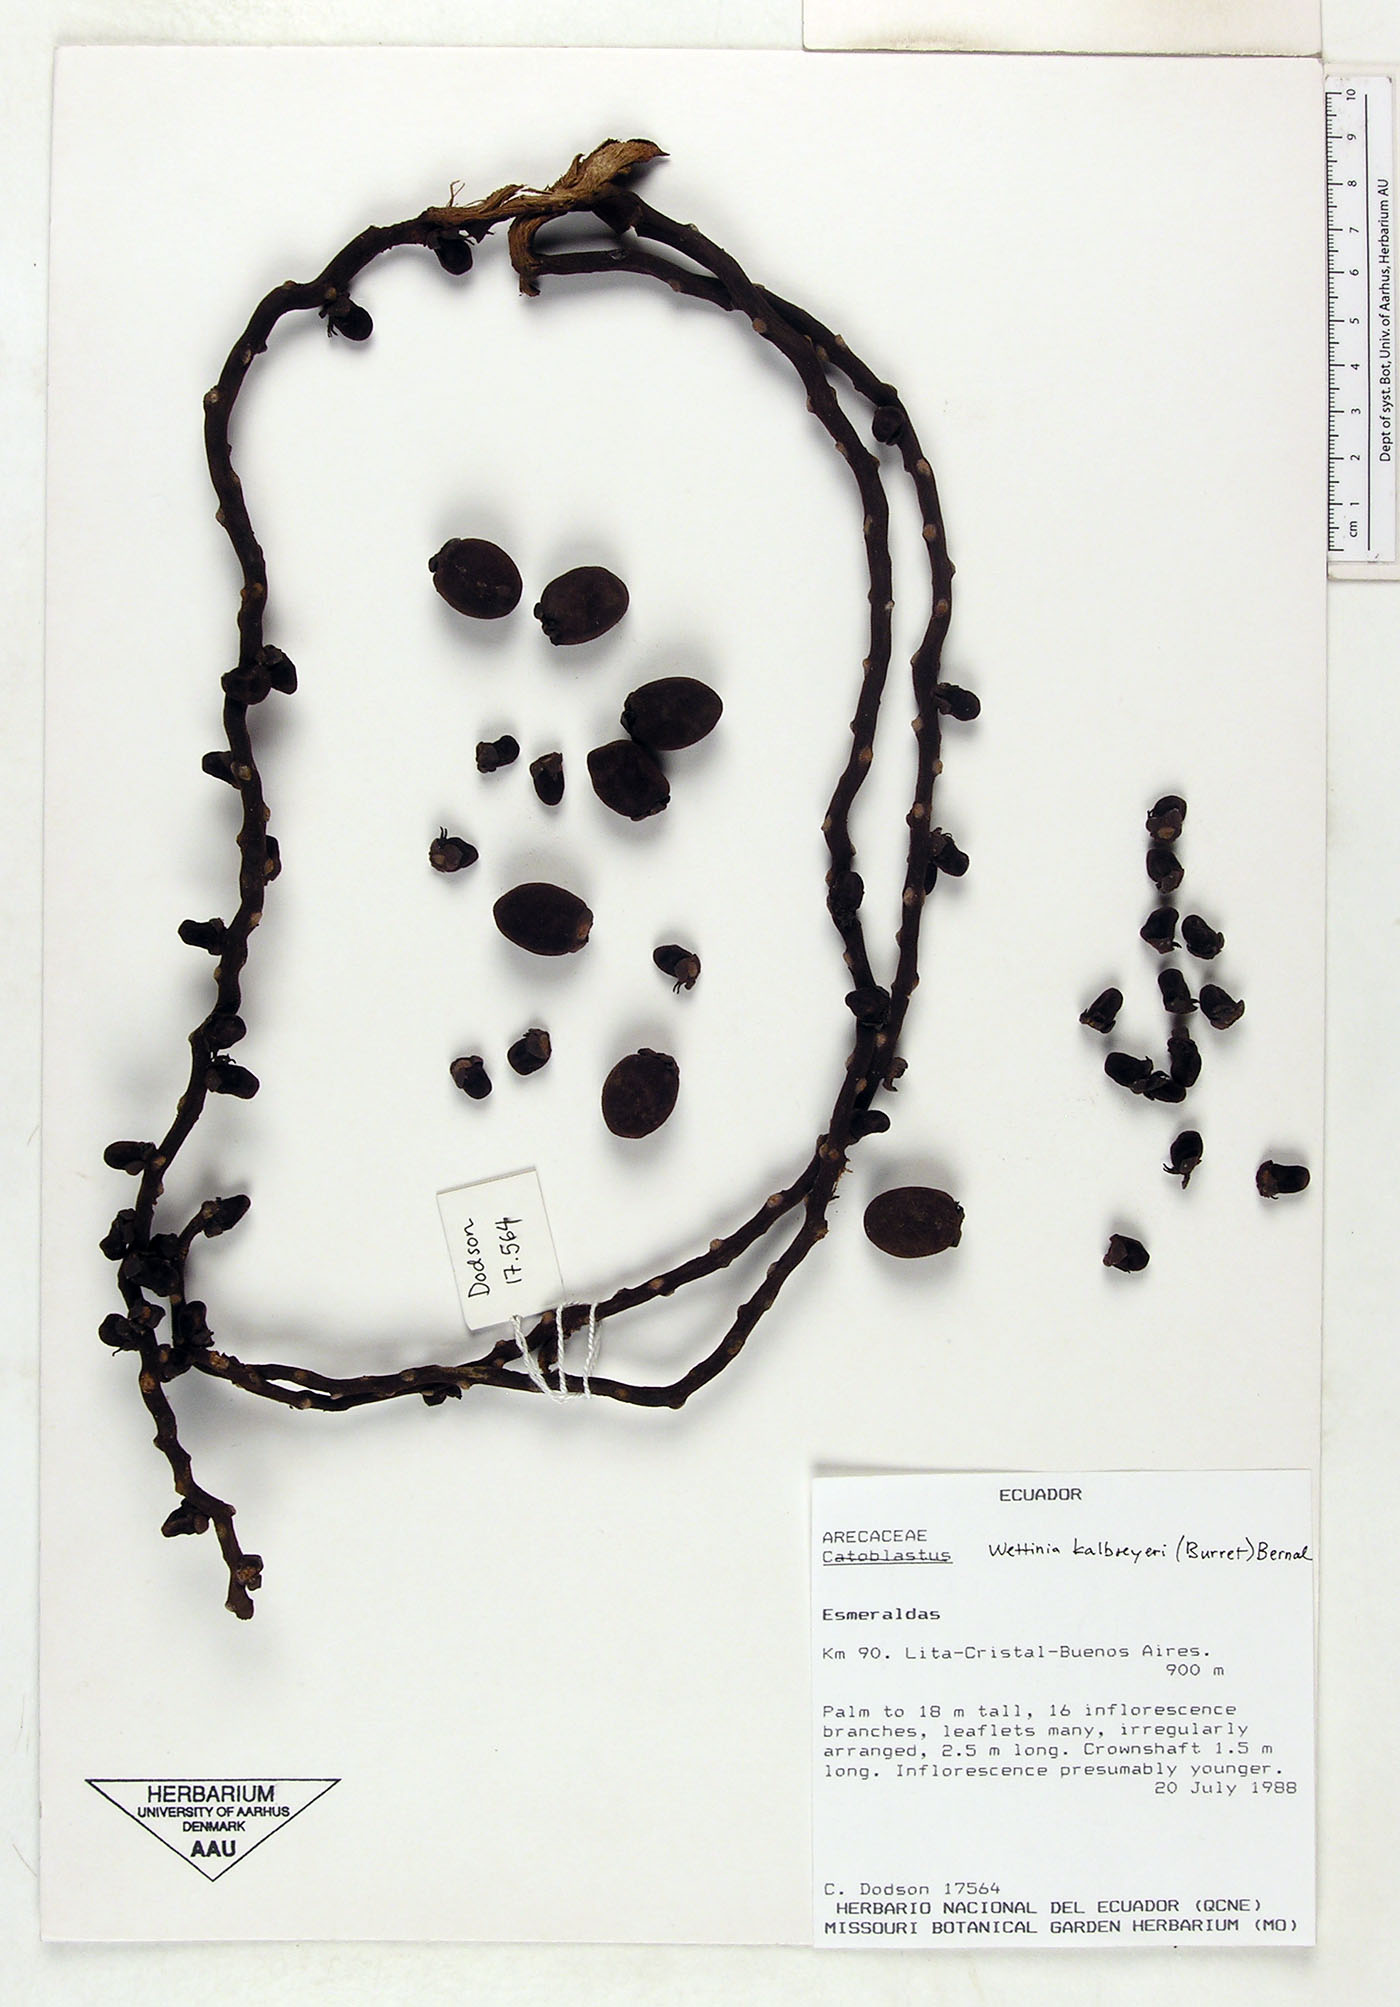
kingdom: Plantae
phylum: Tracheophyta
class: Liliopsida
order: Arecales
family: Arecaceae
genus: Wettinia
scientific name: Wettinia kalbreyeri
